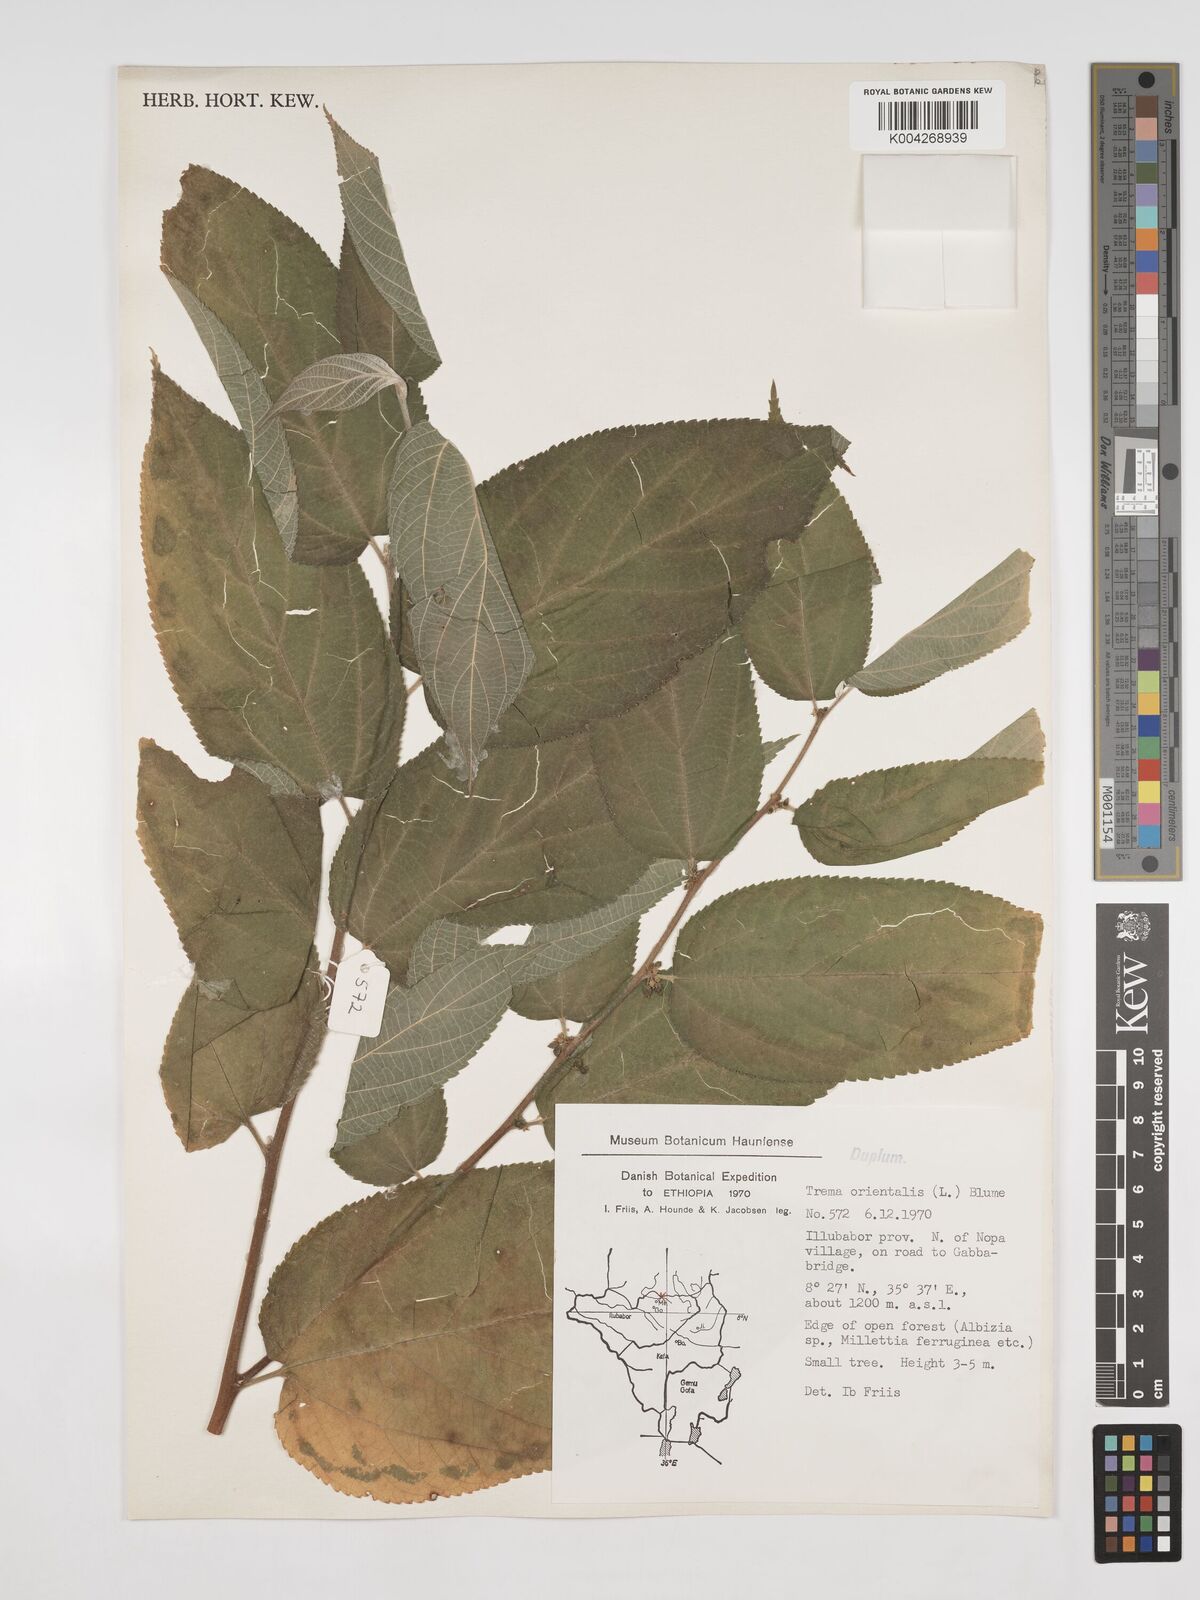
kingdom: Plantae
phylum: Tracheophyta
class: Magnoliopsida
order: Rosales
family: Cannabaceae
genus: Trema
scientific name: Trema orientale
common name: Indian charcoal tree
